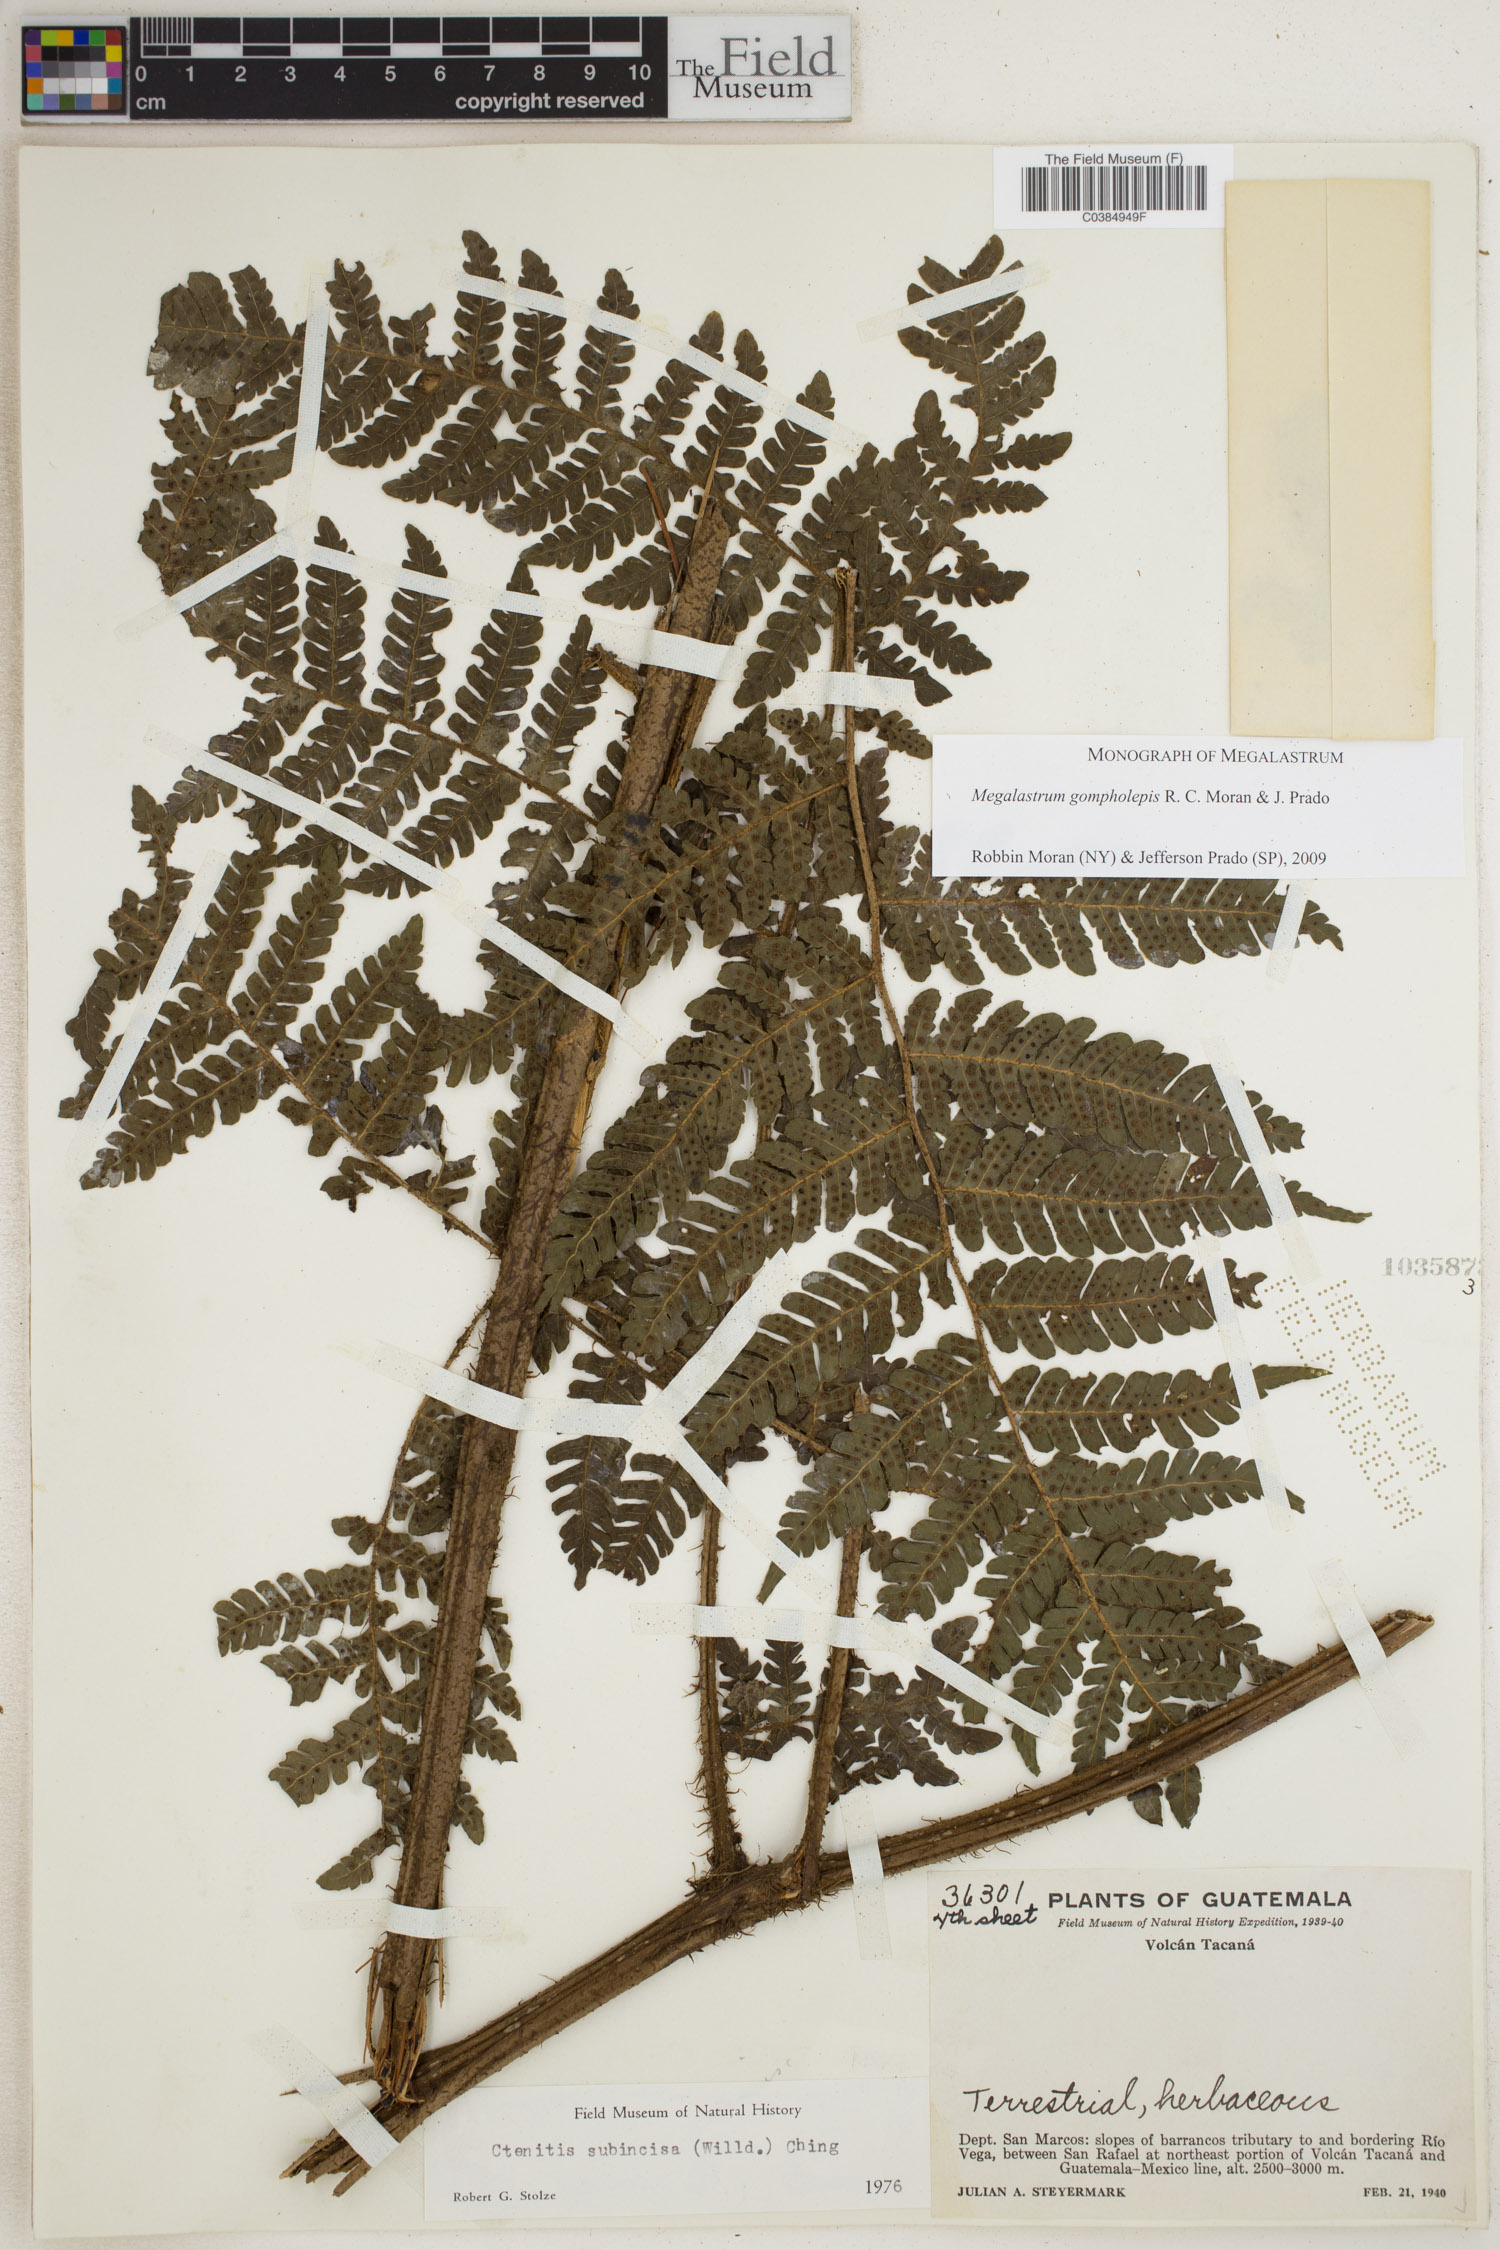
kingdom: Plantae
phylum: Tracheophyta
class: Polypodiopsida
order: Polypodiales
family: Dryopteridaceae
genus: Megalastrum
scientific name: Megalastrum gompholepis
